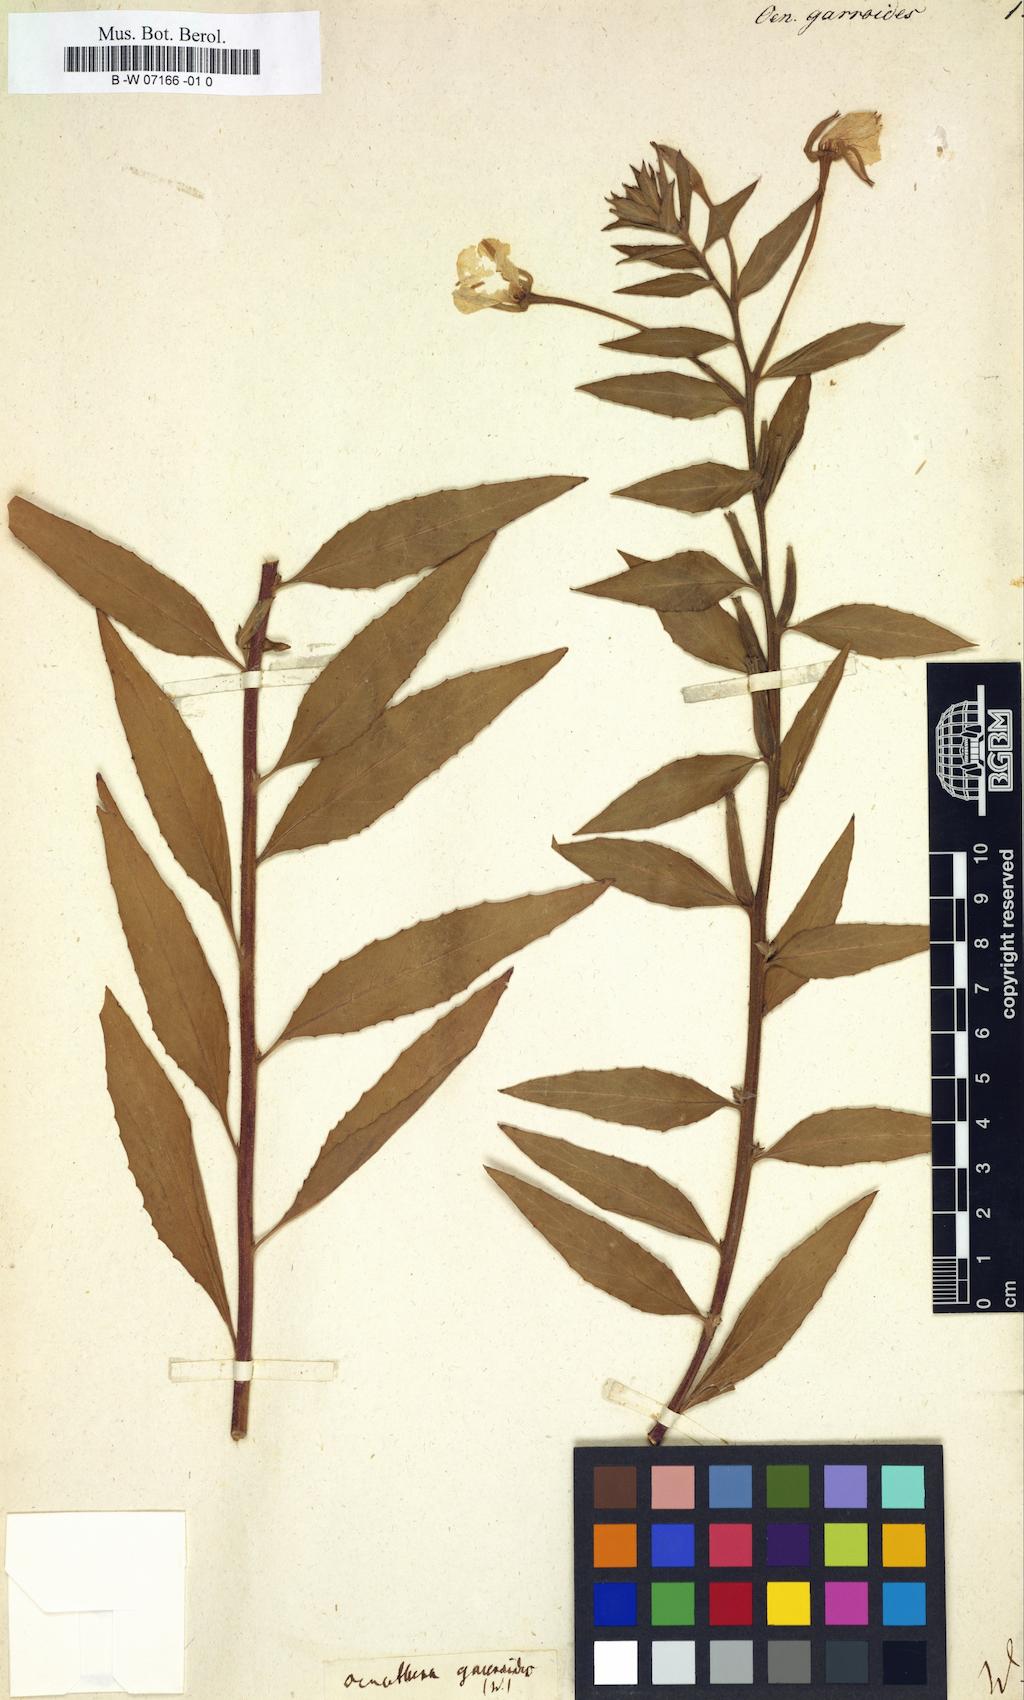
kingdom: Plantae
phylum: Tracheophyta
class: Magnoliopsida
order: Myrtales
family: Onagraceae
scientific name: Onagraceae
